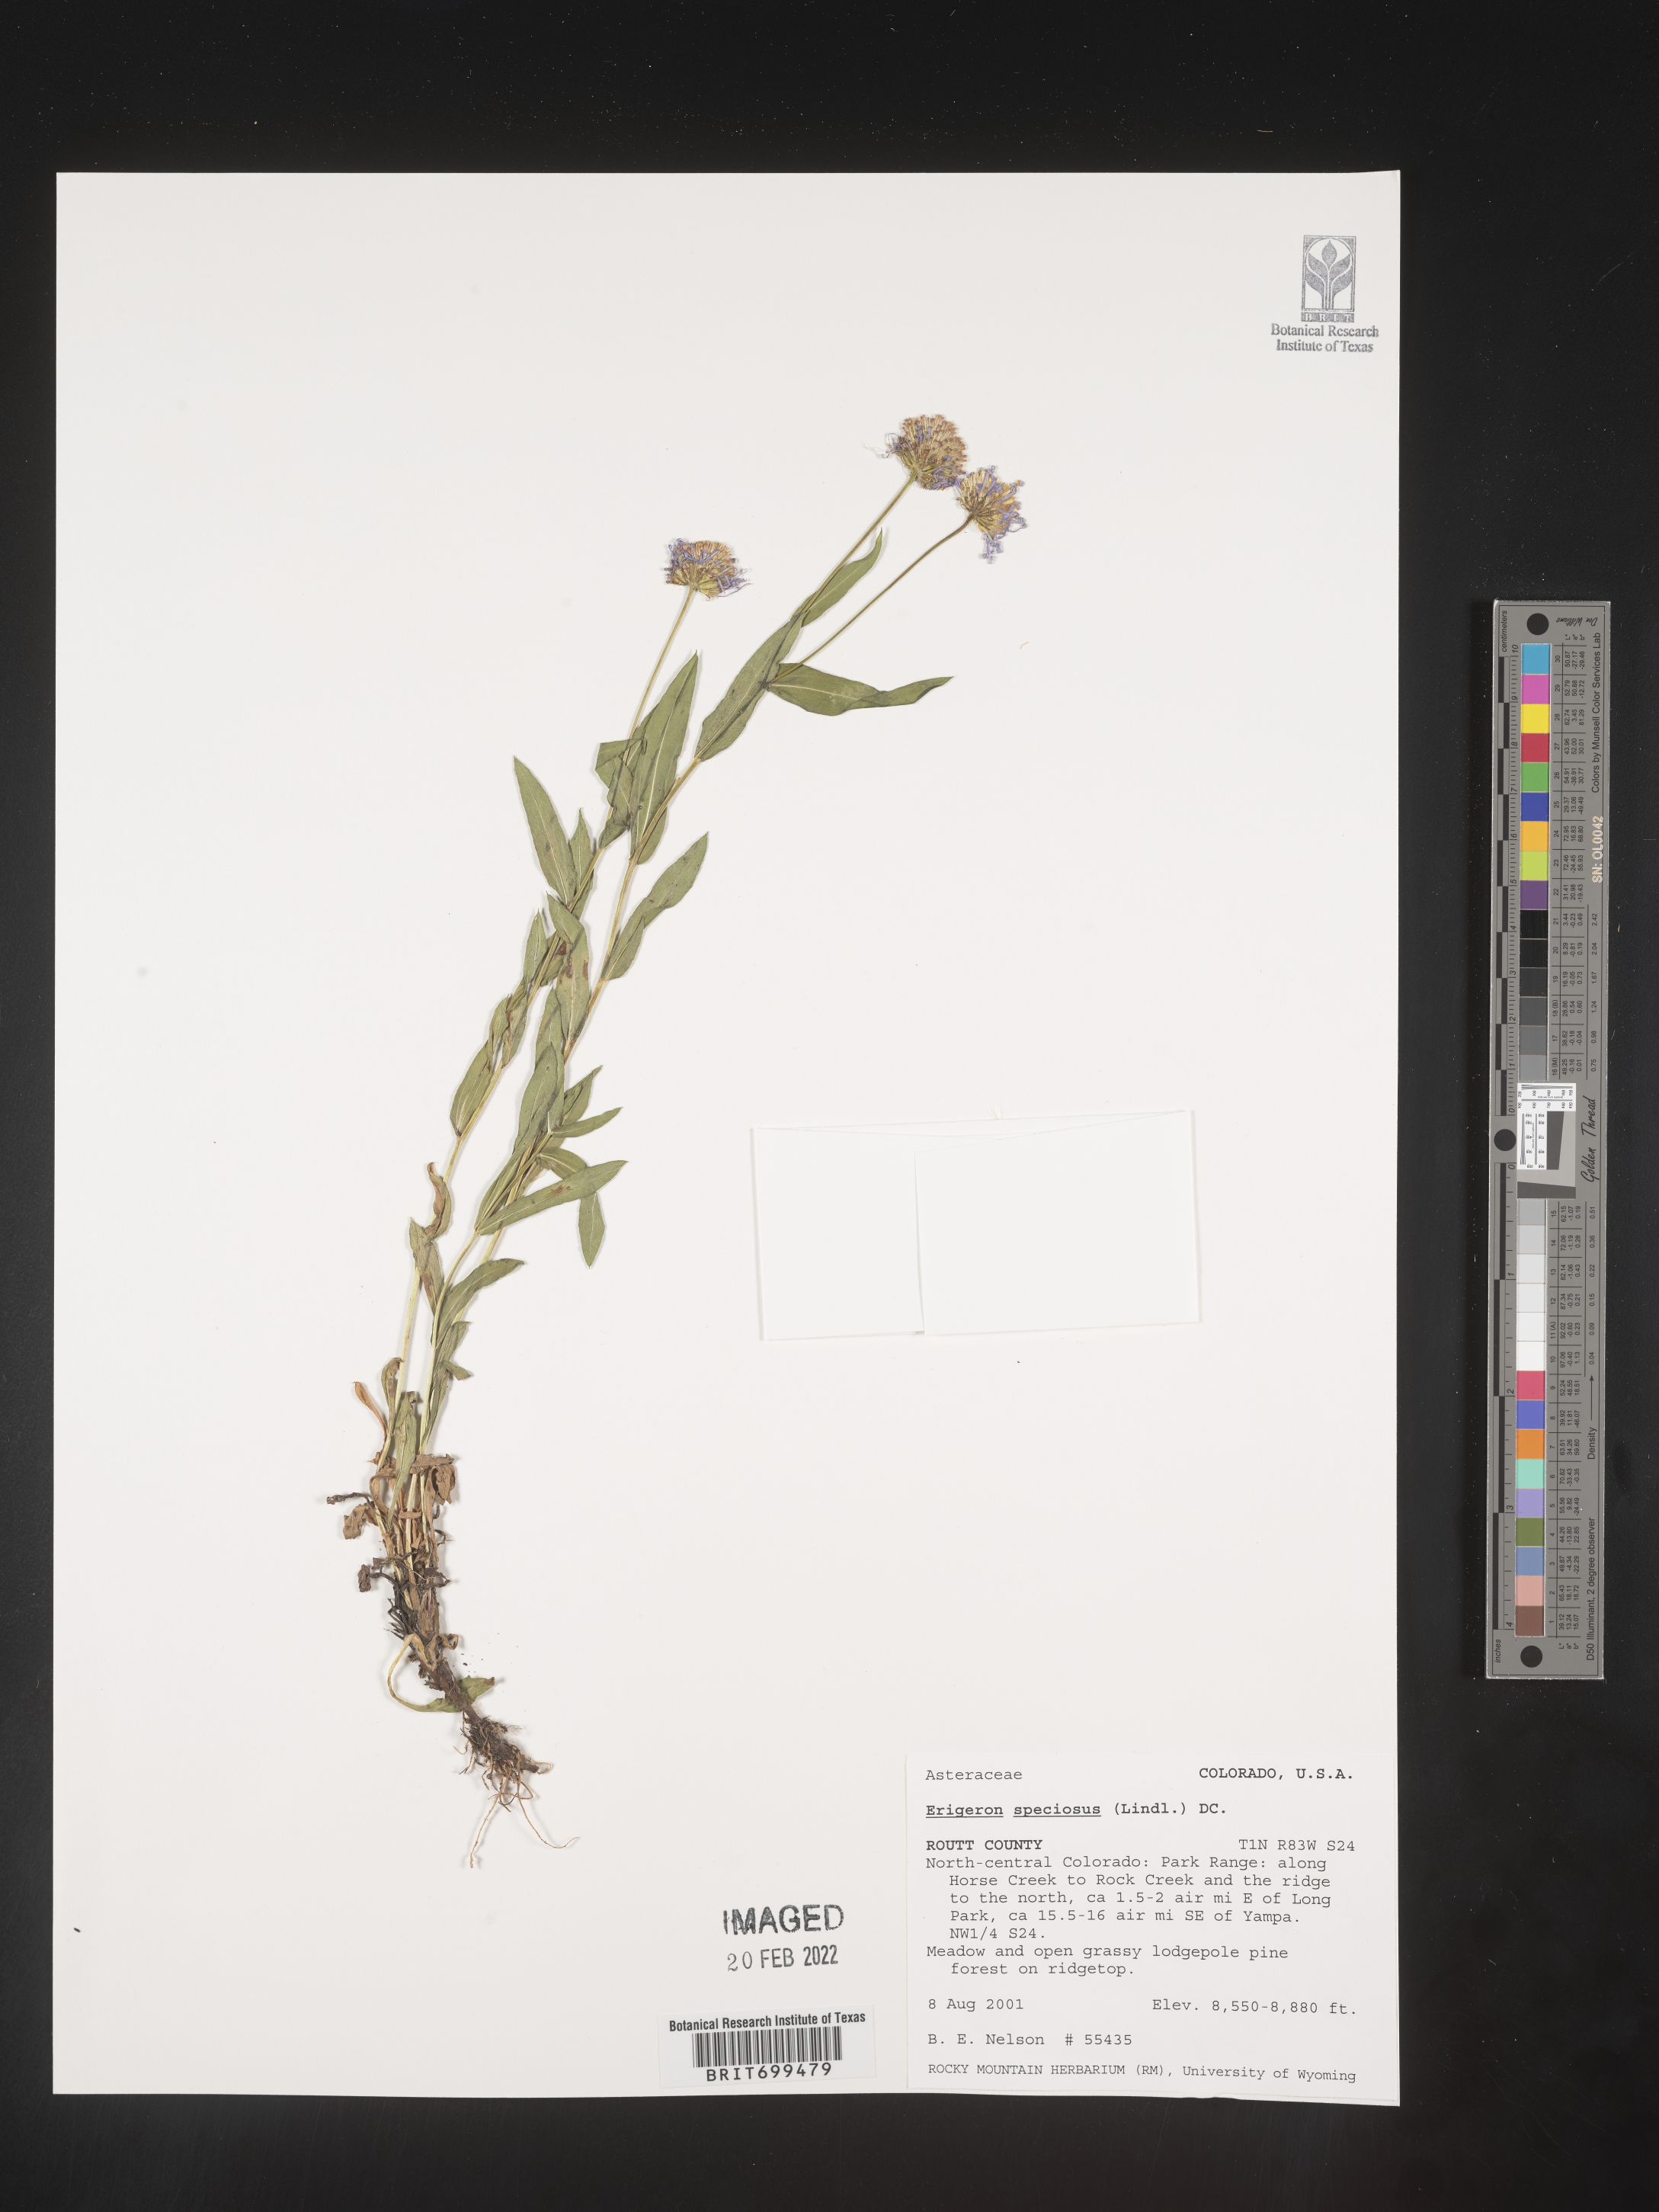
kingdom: Plantae
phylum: Tracheophyta
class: Magnoliopsida
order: Asterales
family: Asteraceae
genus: Erigeron
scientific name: Erigeron speciosus
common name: Aspen fleabane
